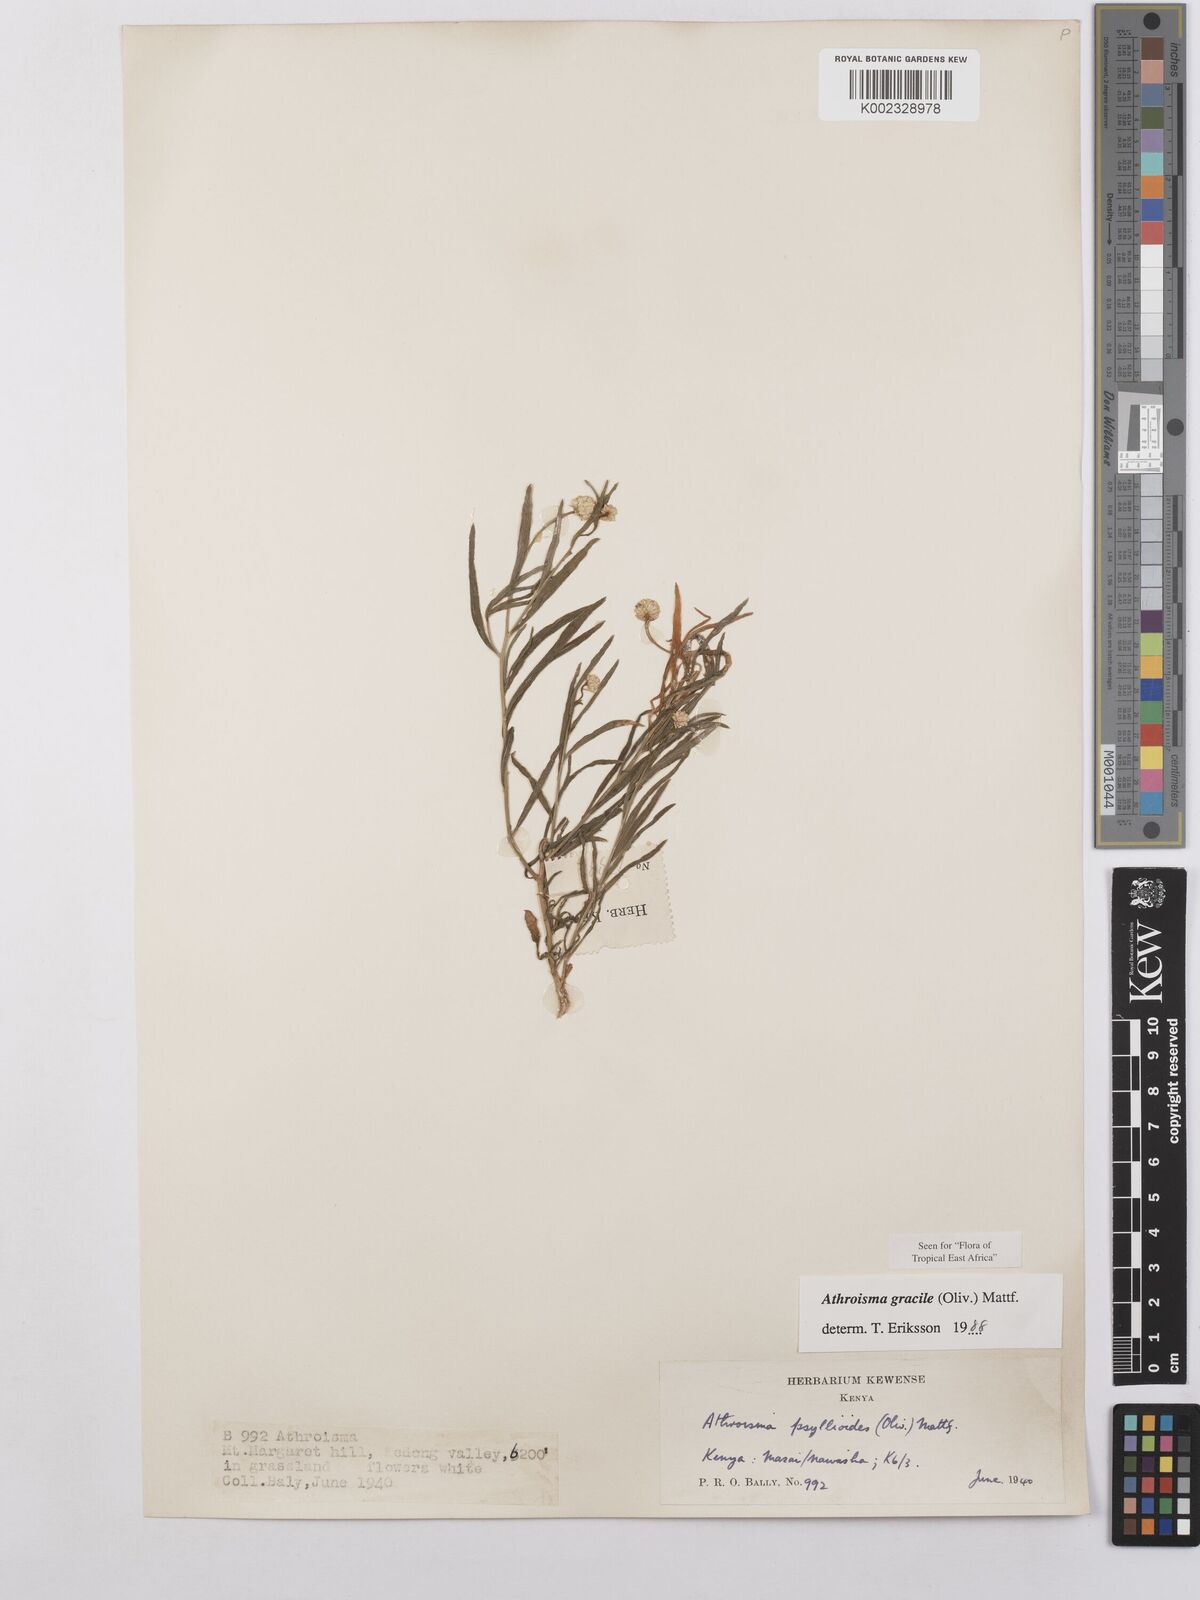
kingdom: Plantae
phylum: Tracheophyta
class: Magnoliopsida
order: Asterales
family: Asteraceae
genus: Athroisma
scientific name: Athroisma gracile
